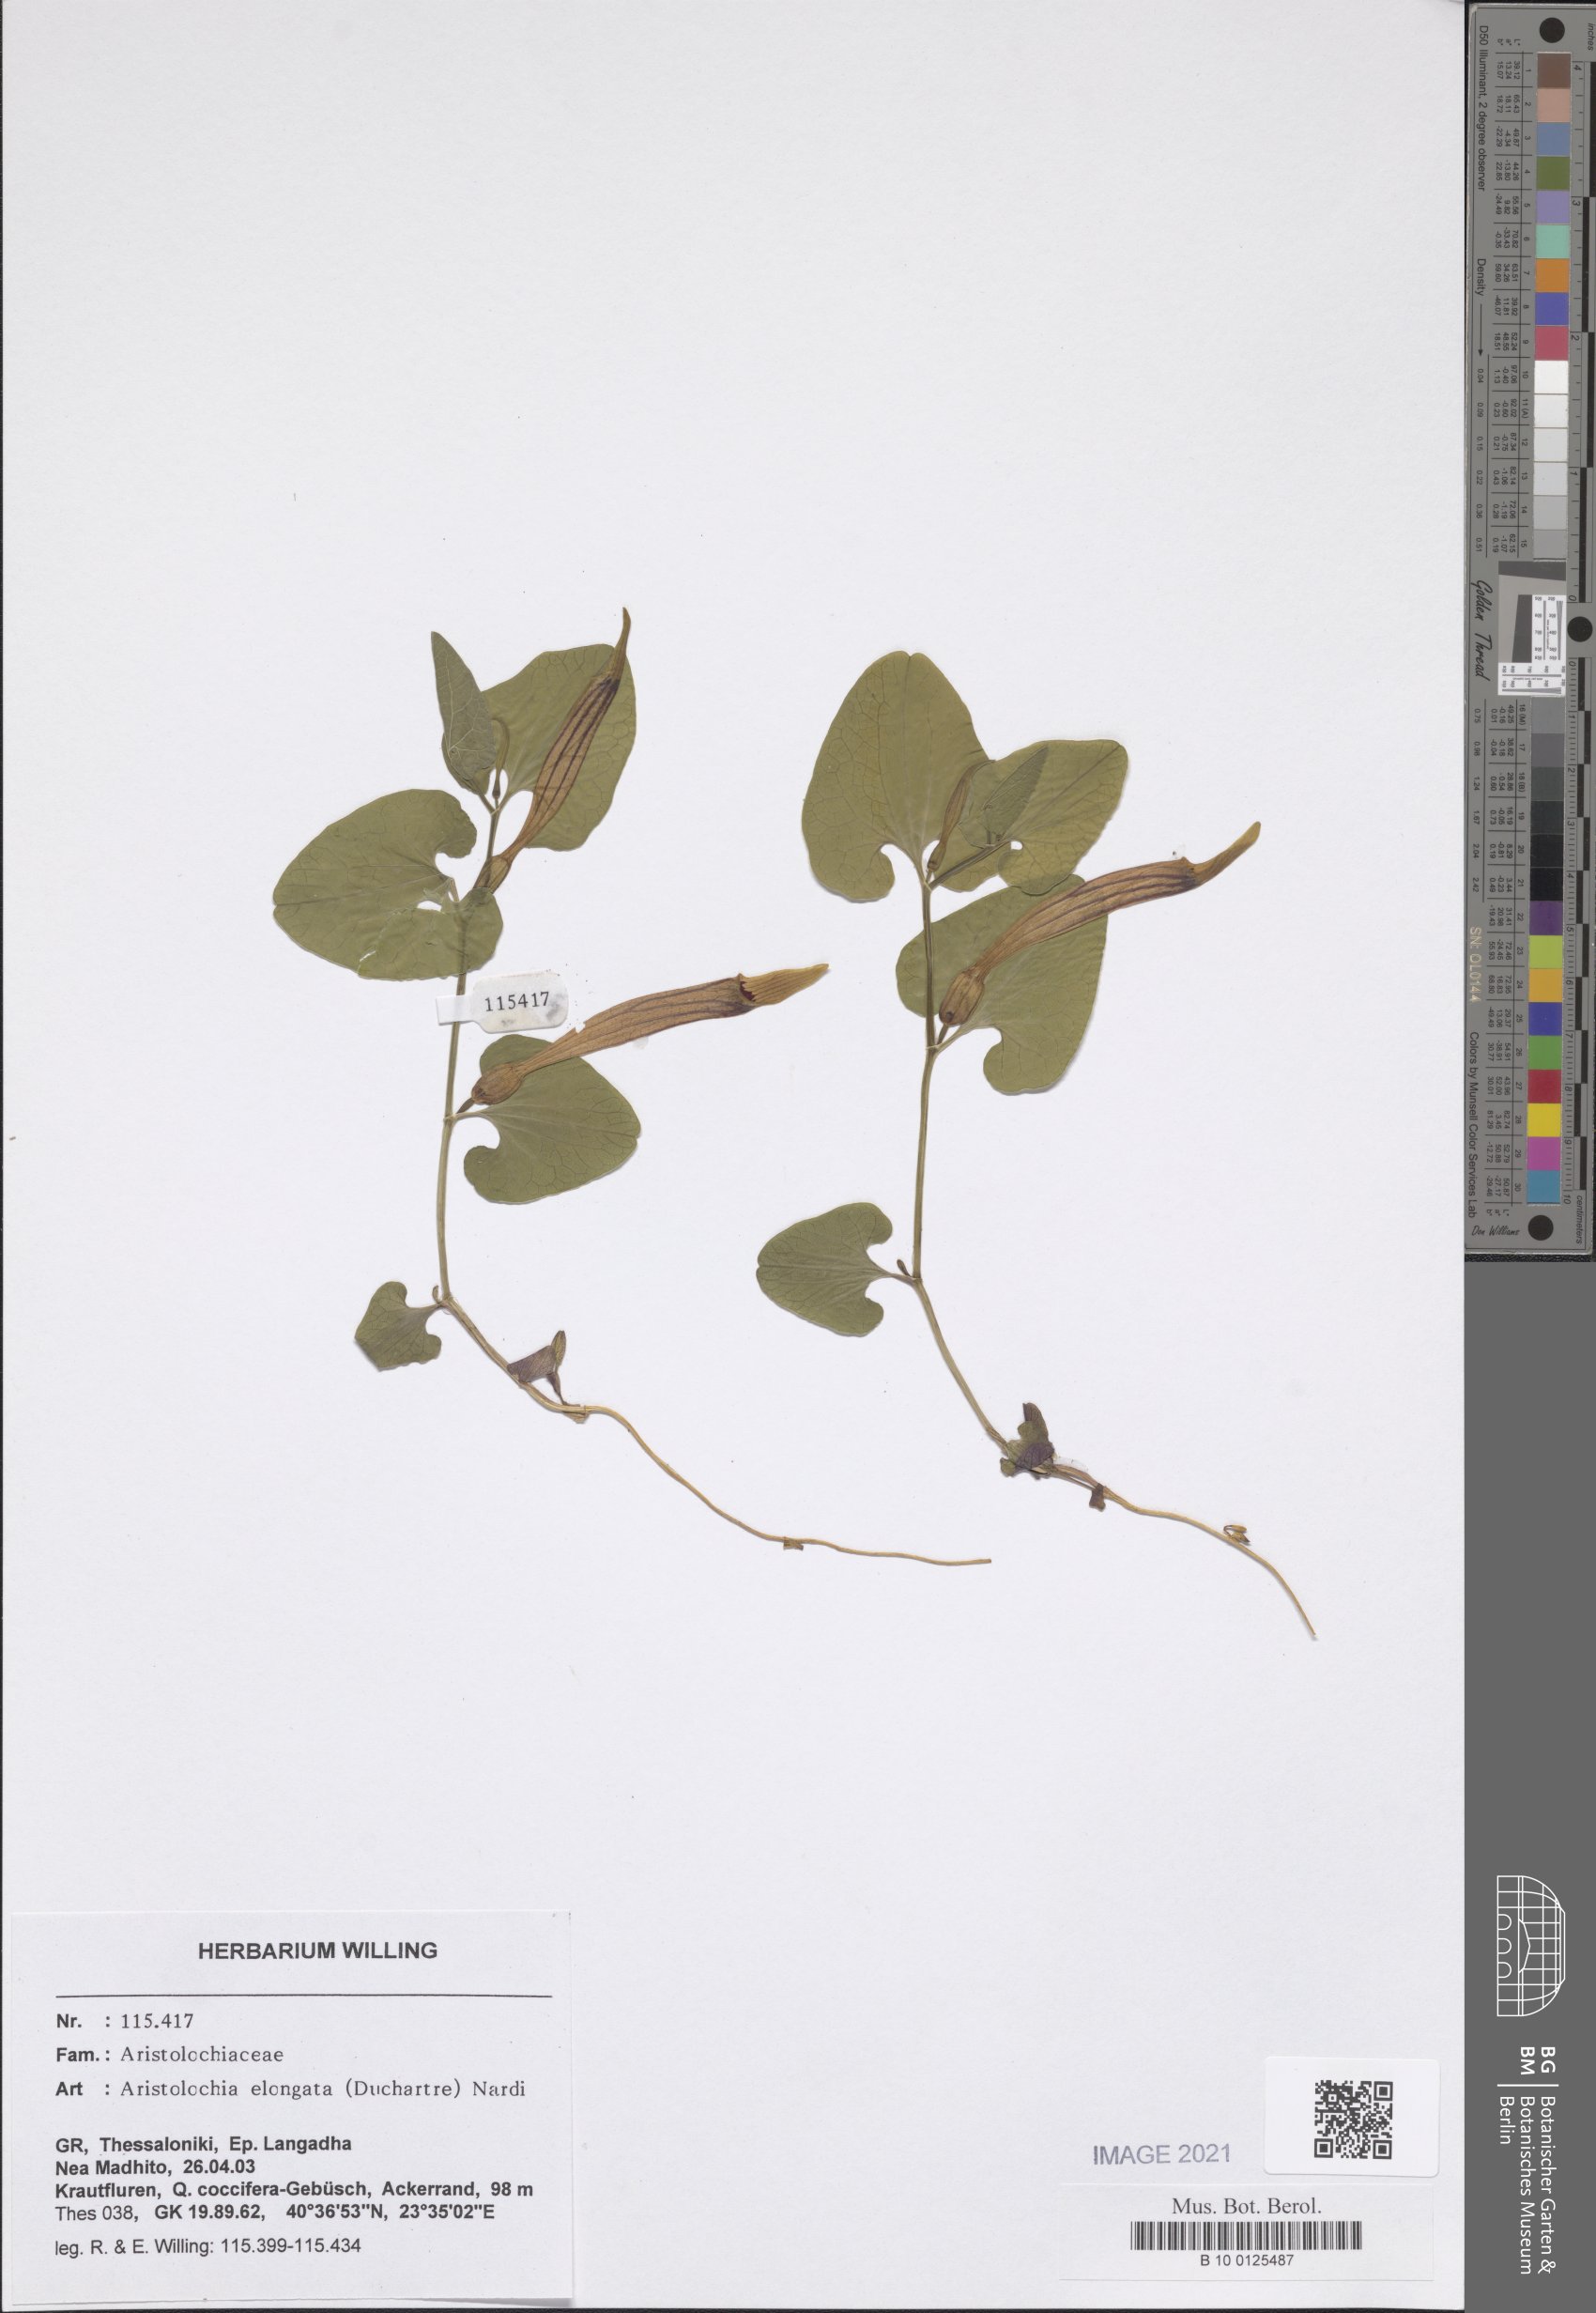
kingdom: Plantae
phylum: Tracheophyta
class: Magnoliopsida
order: Piperales
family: Aristolochiaceae
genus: Aristolochia
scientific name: Aristolochia nardiana
